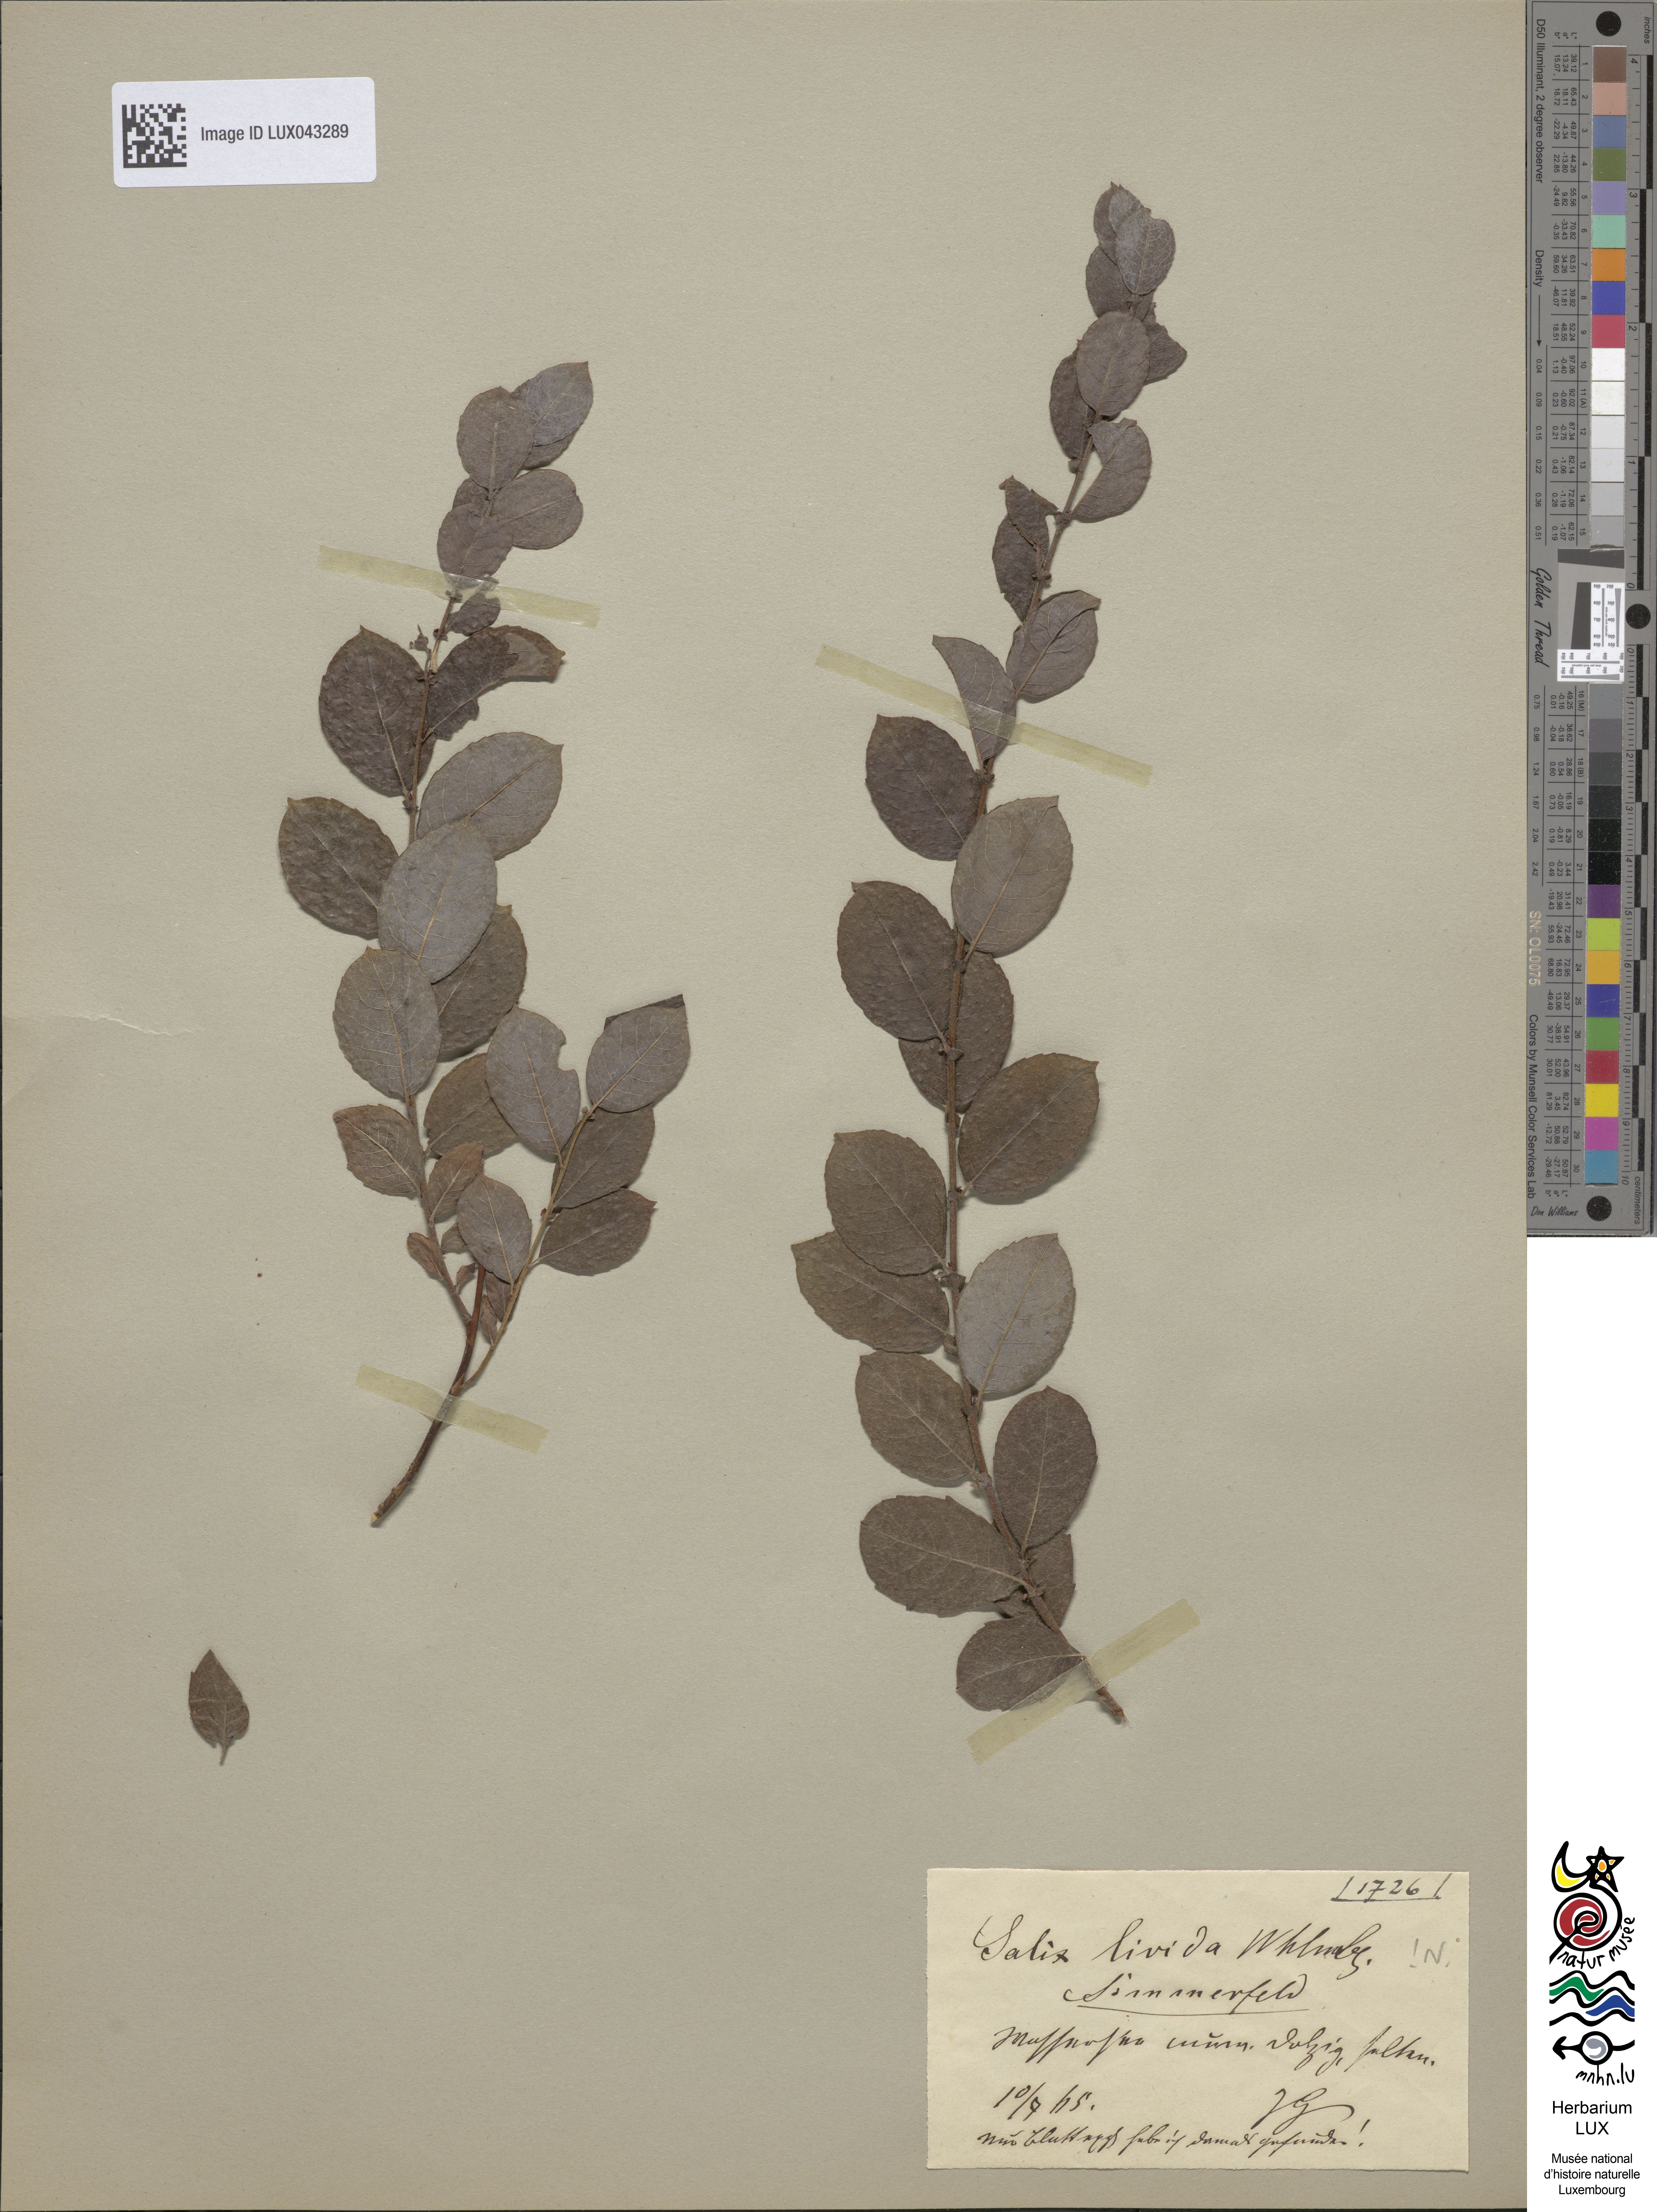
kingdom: Plantae
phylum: Tracheophyta
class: Magnoliopsida
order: Malpighiales
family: Salicaceae
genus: Salix
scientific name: Salix starkeana
